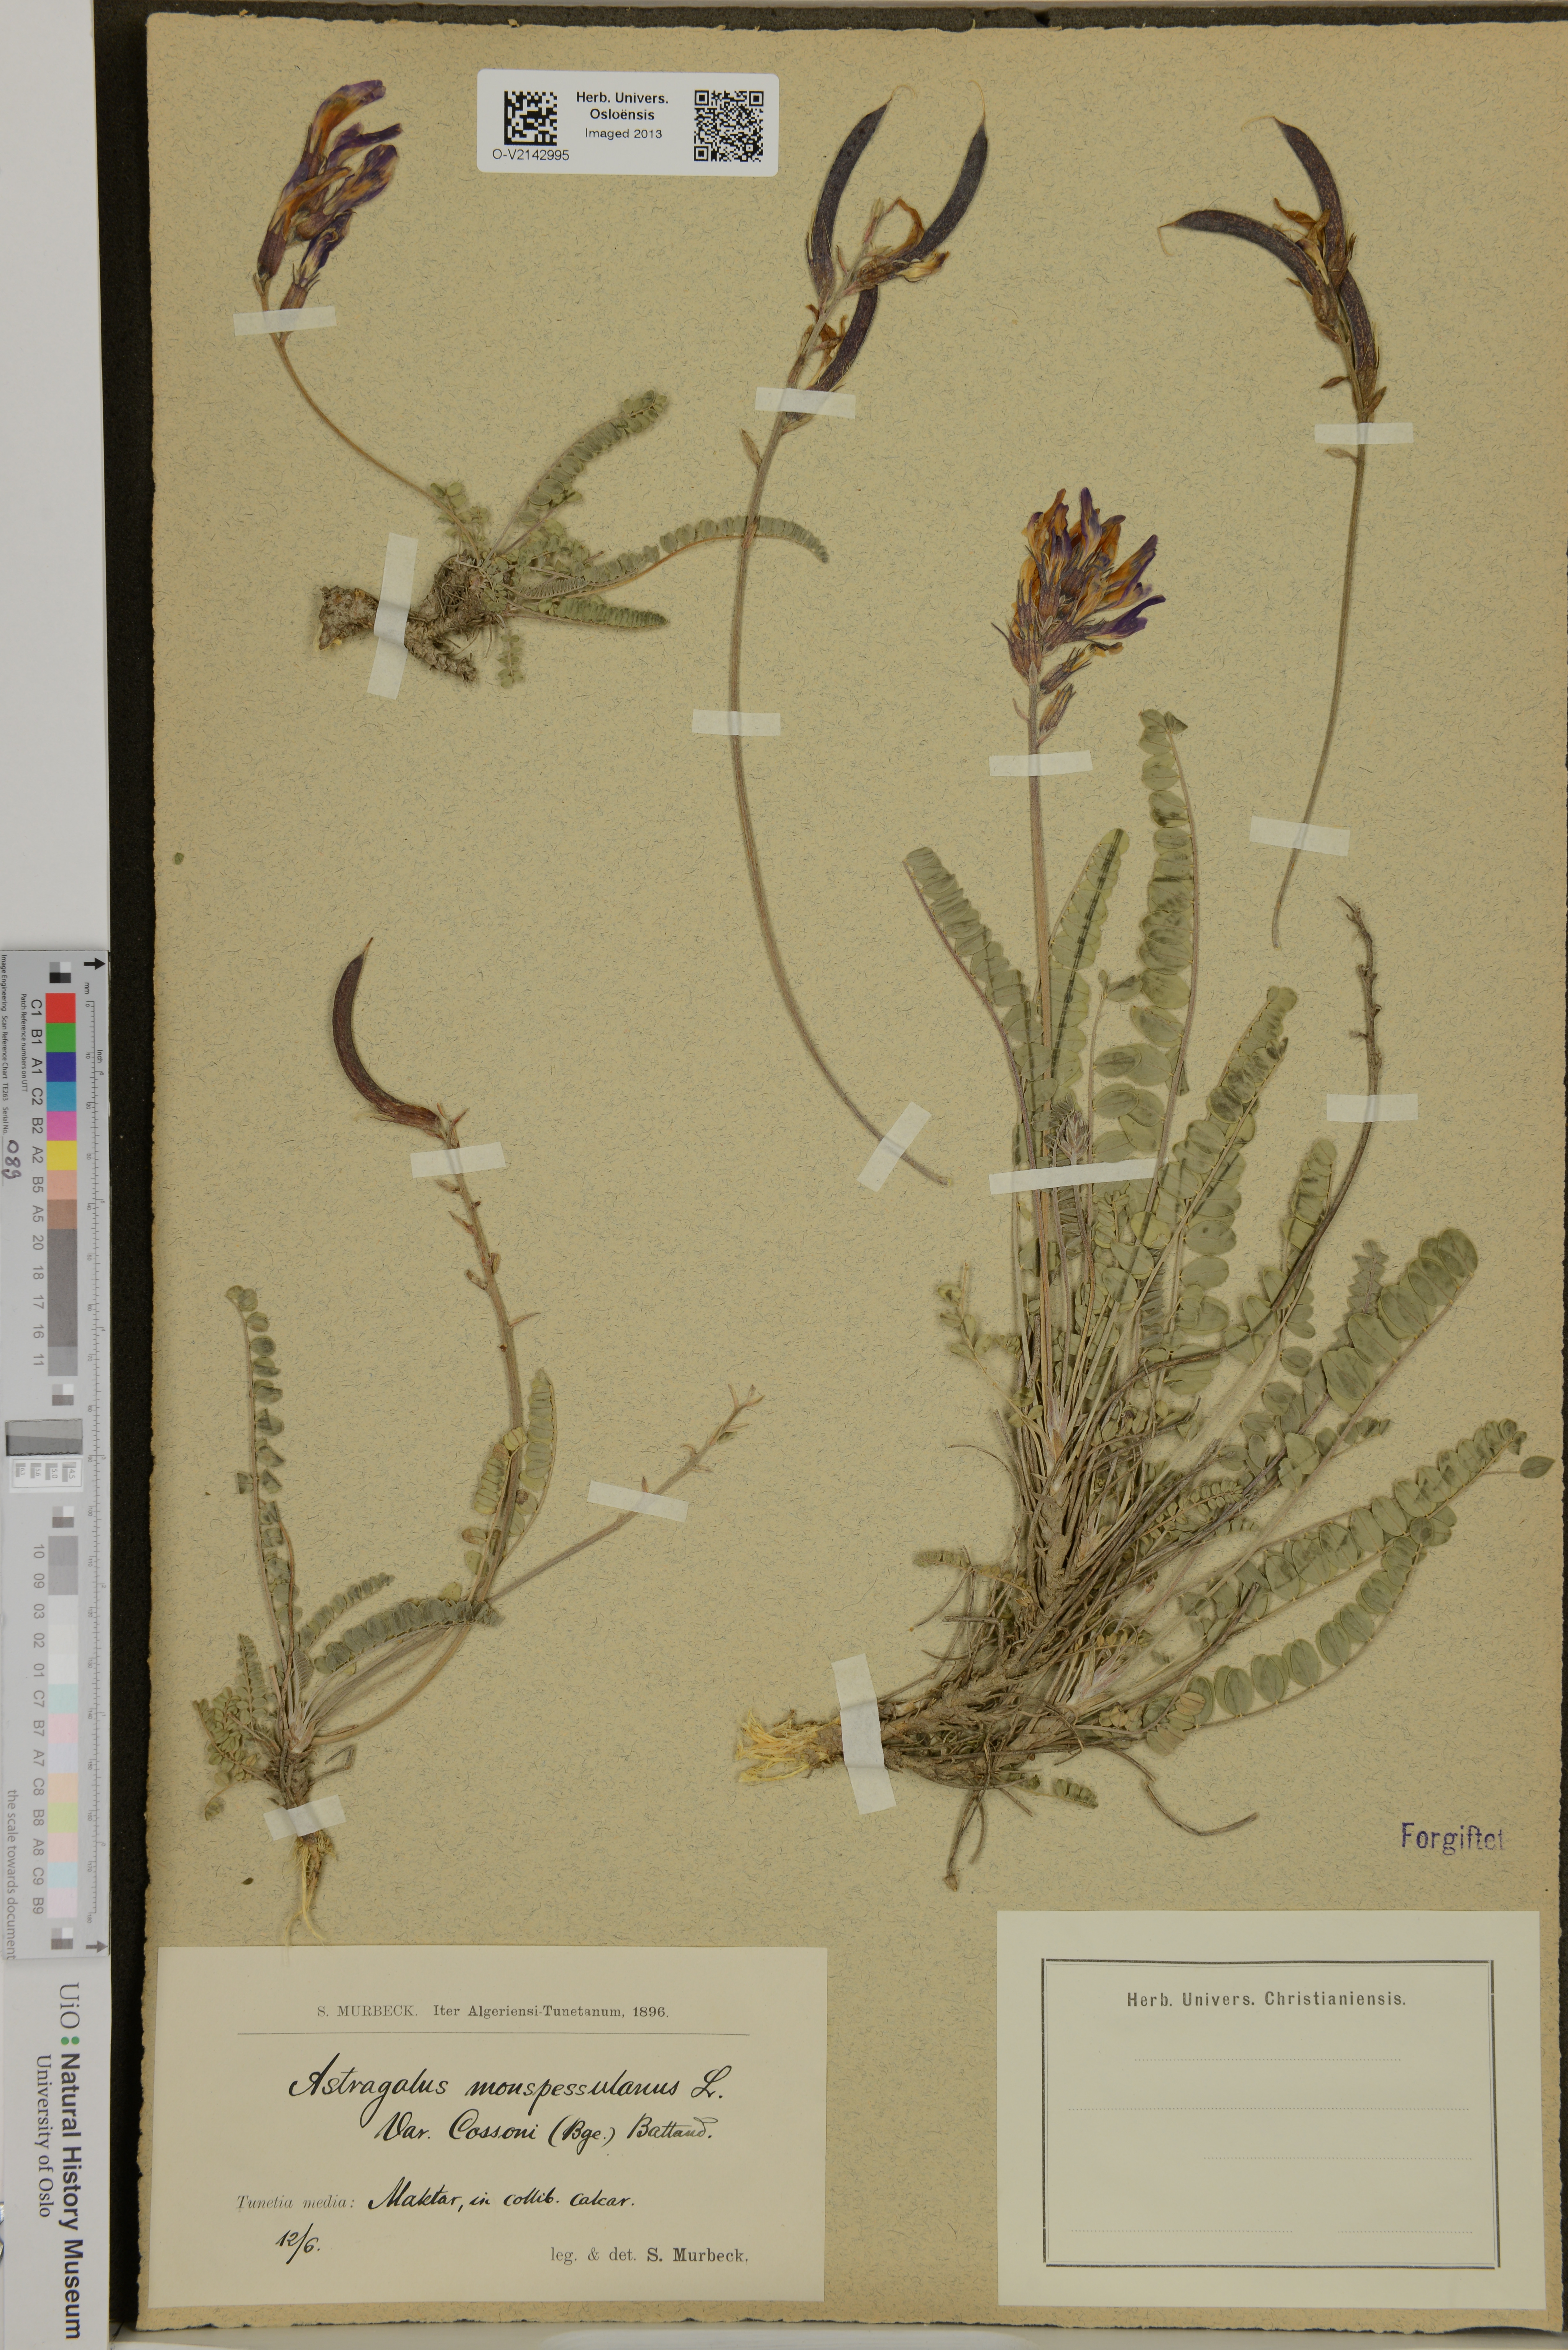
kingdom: Plantae
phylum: Tracheophyta
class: Magnoliopsida
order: Fabales
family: Fabaceae
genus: Astragalus
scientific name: Astragalus monspessulanus
